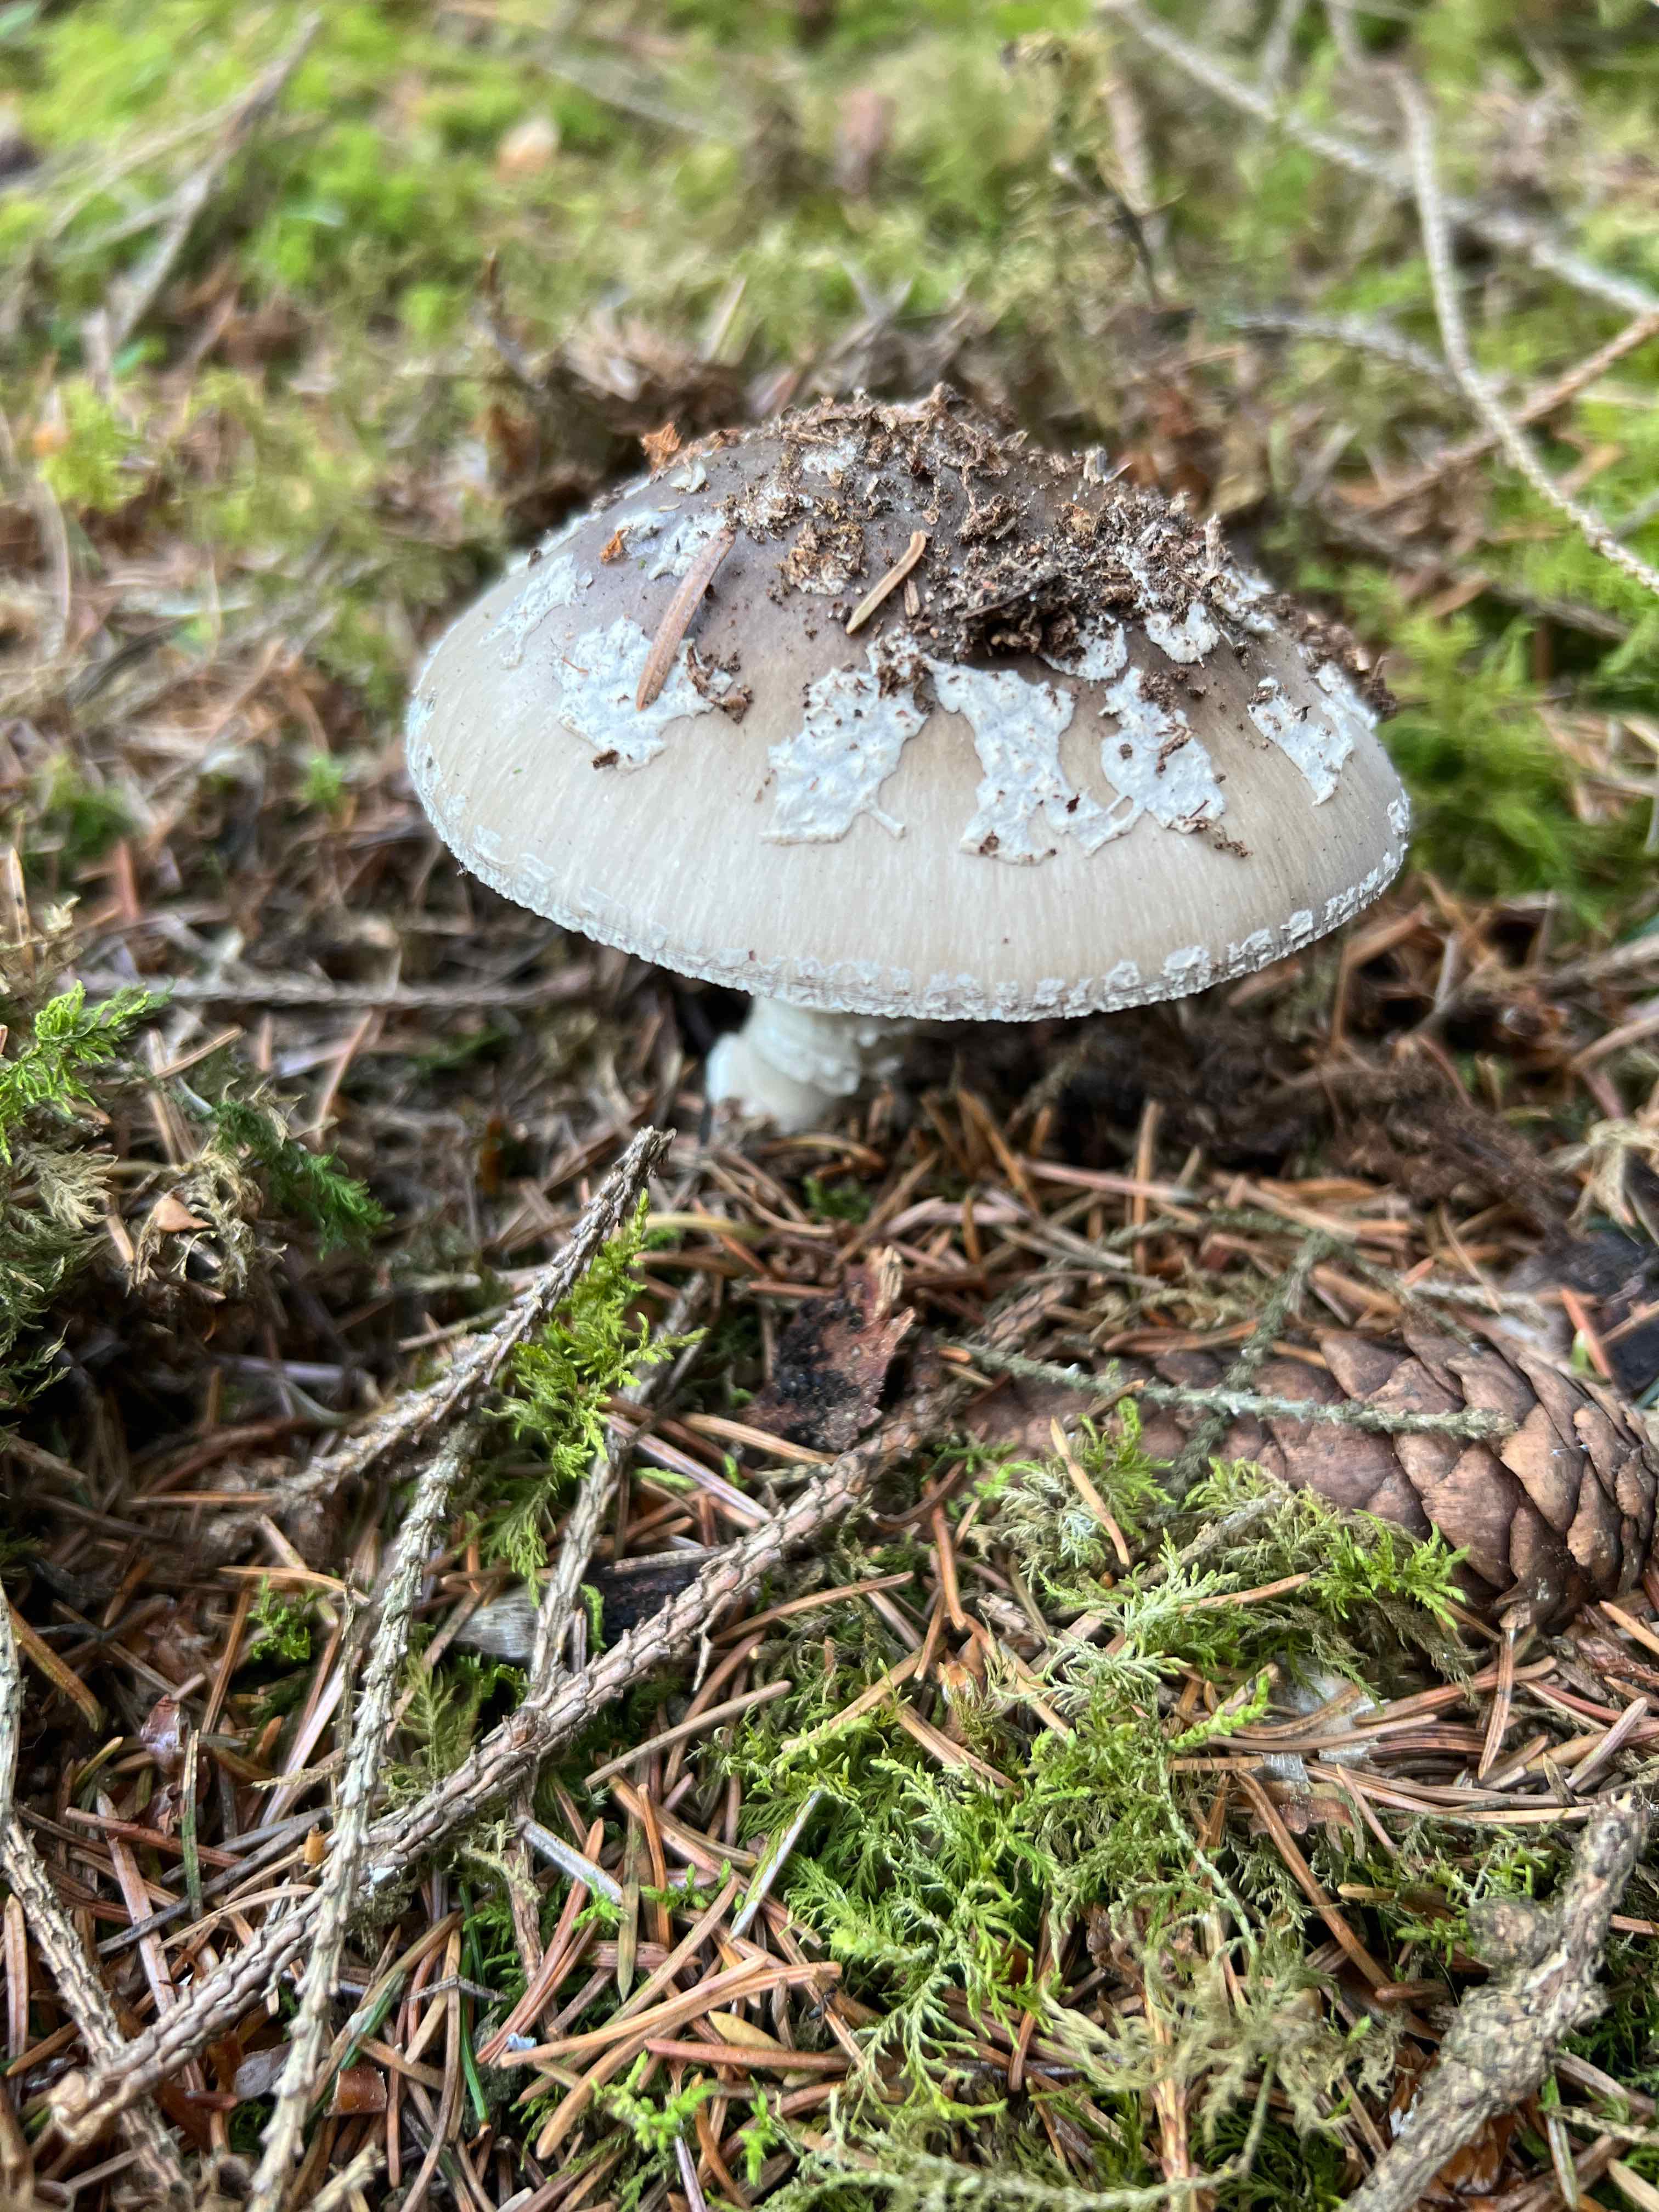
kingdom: Fungi
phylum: Basidiomycota
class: Agaricomycetes
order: Agaricales
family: Amanitaceae
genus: Amanita
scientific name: Amanita
